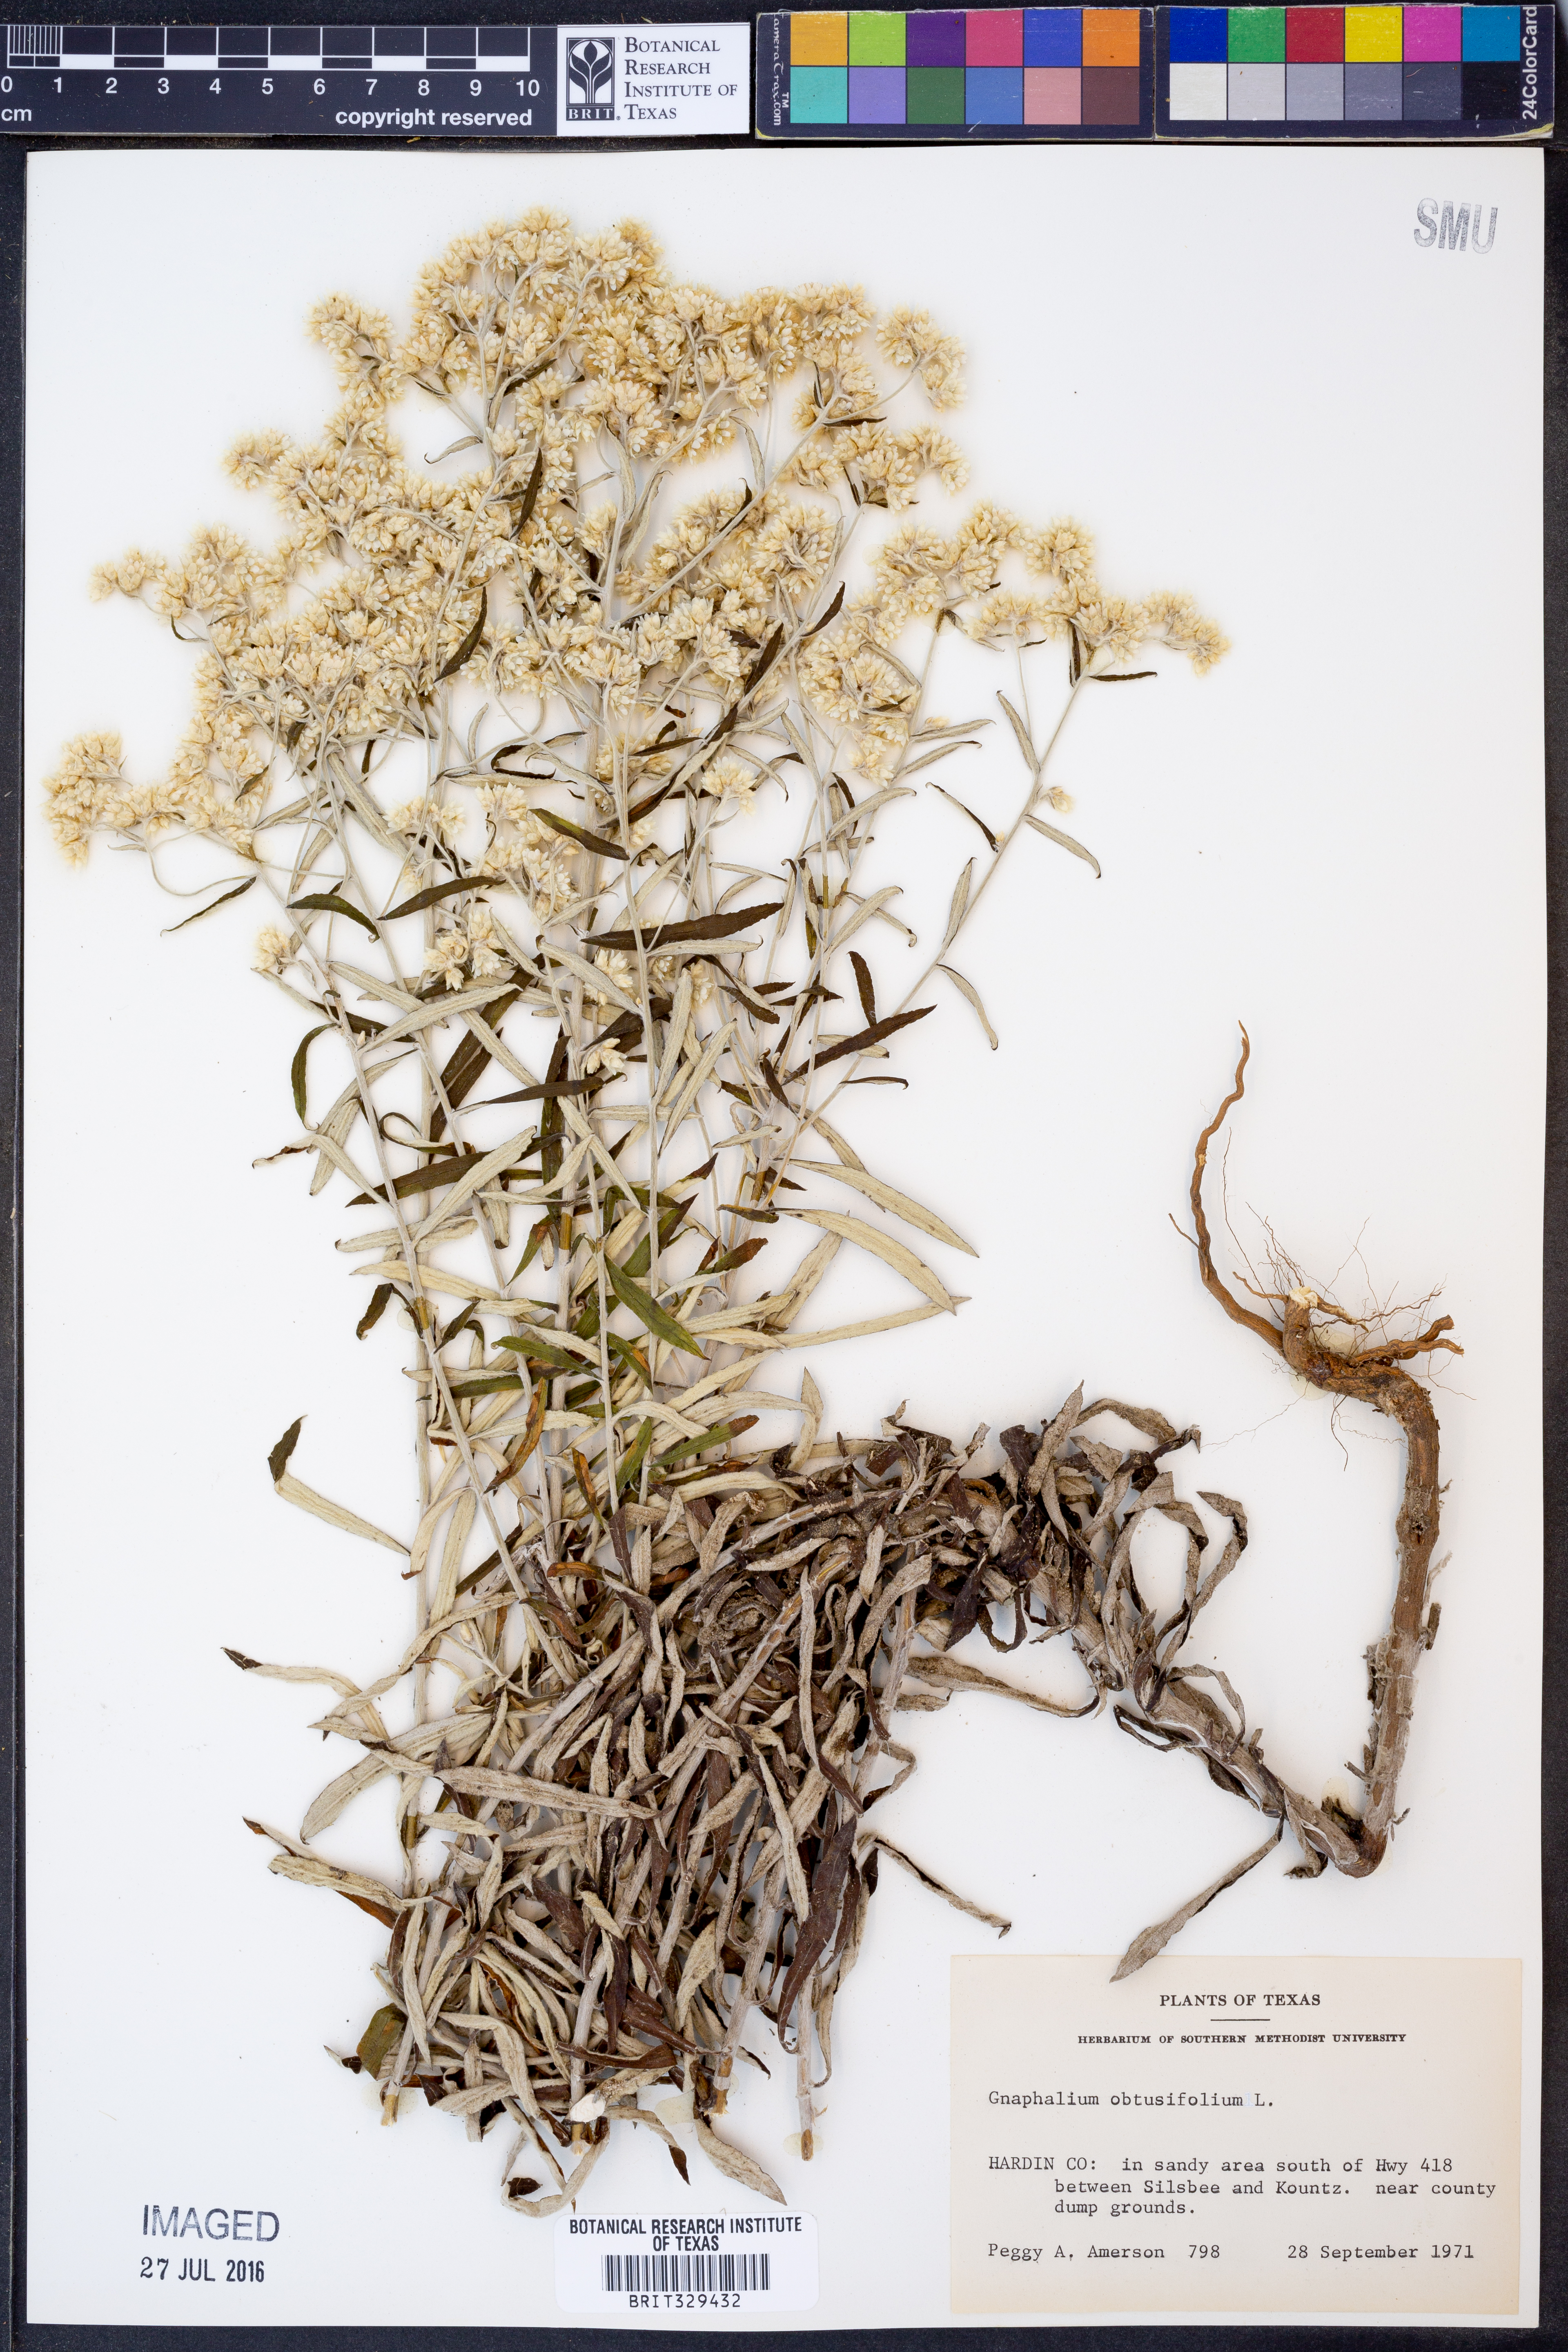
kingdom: Plantae
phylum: Tracheophyta
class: Magnoliopsida
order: Asterales
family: Asteraceae
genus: Pseudognaphalium
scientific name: Pseudognaphalium obtusifolium
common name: Eastern rabbit-tobacco
